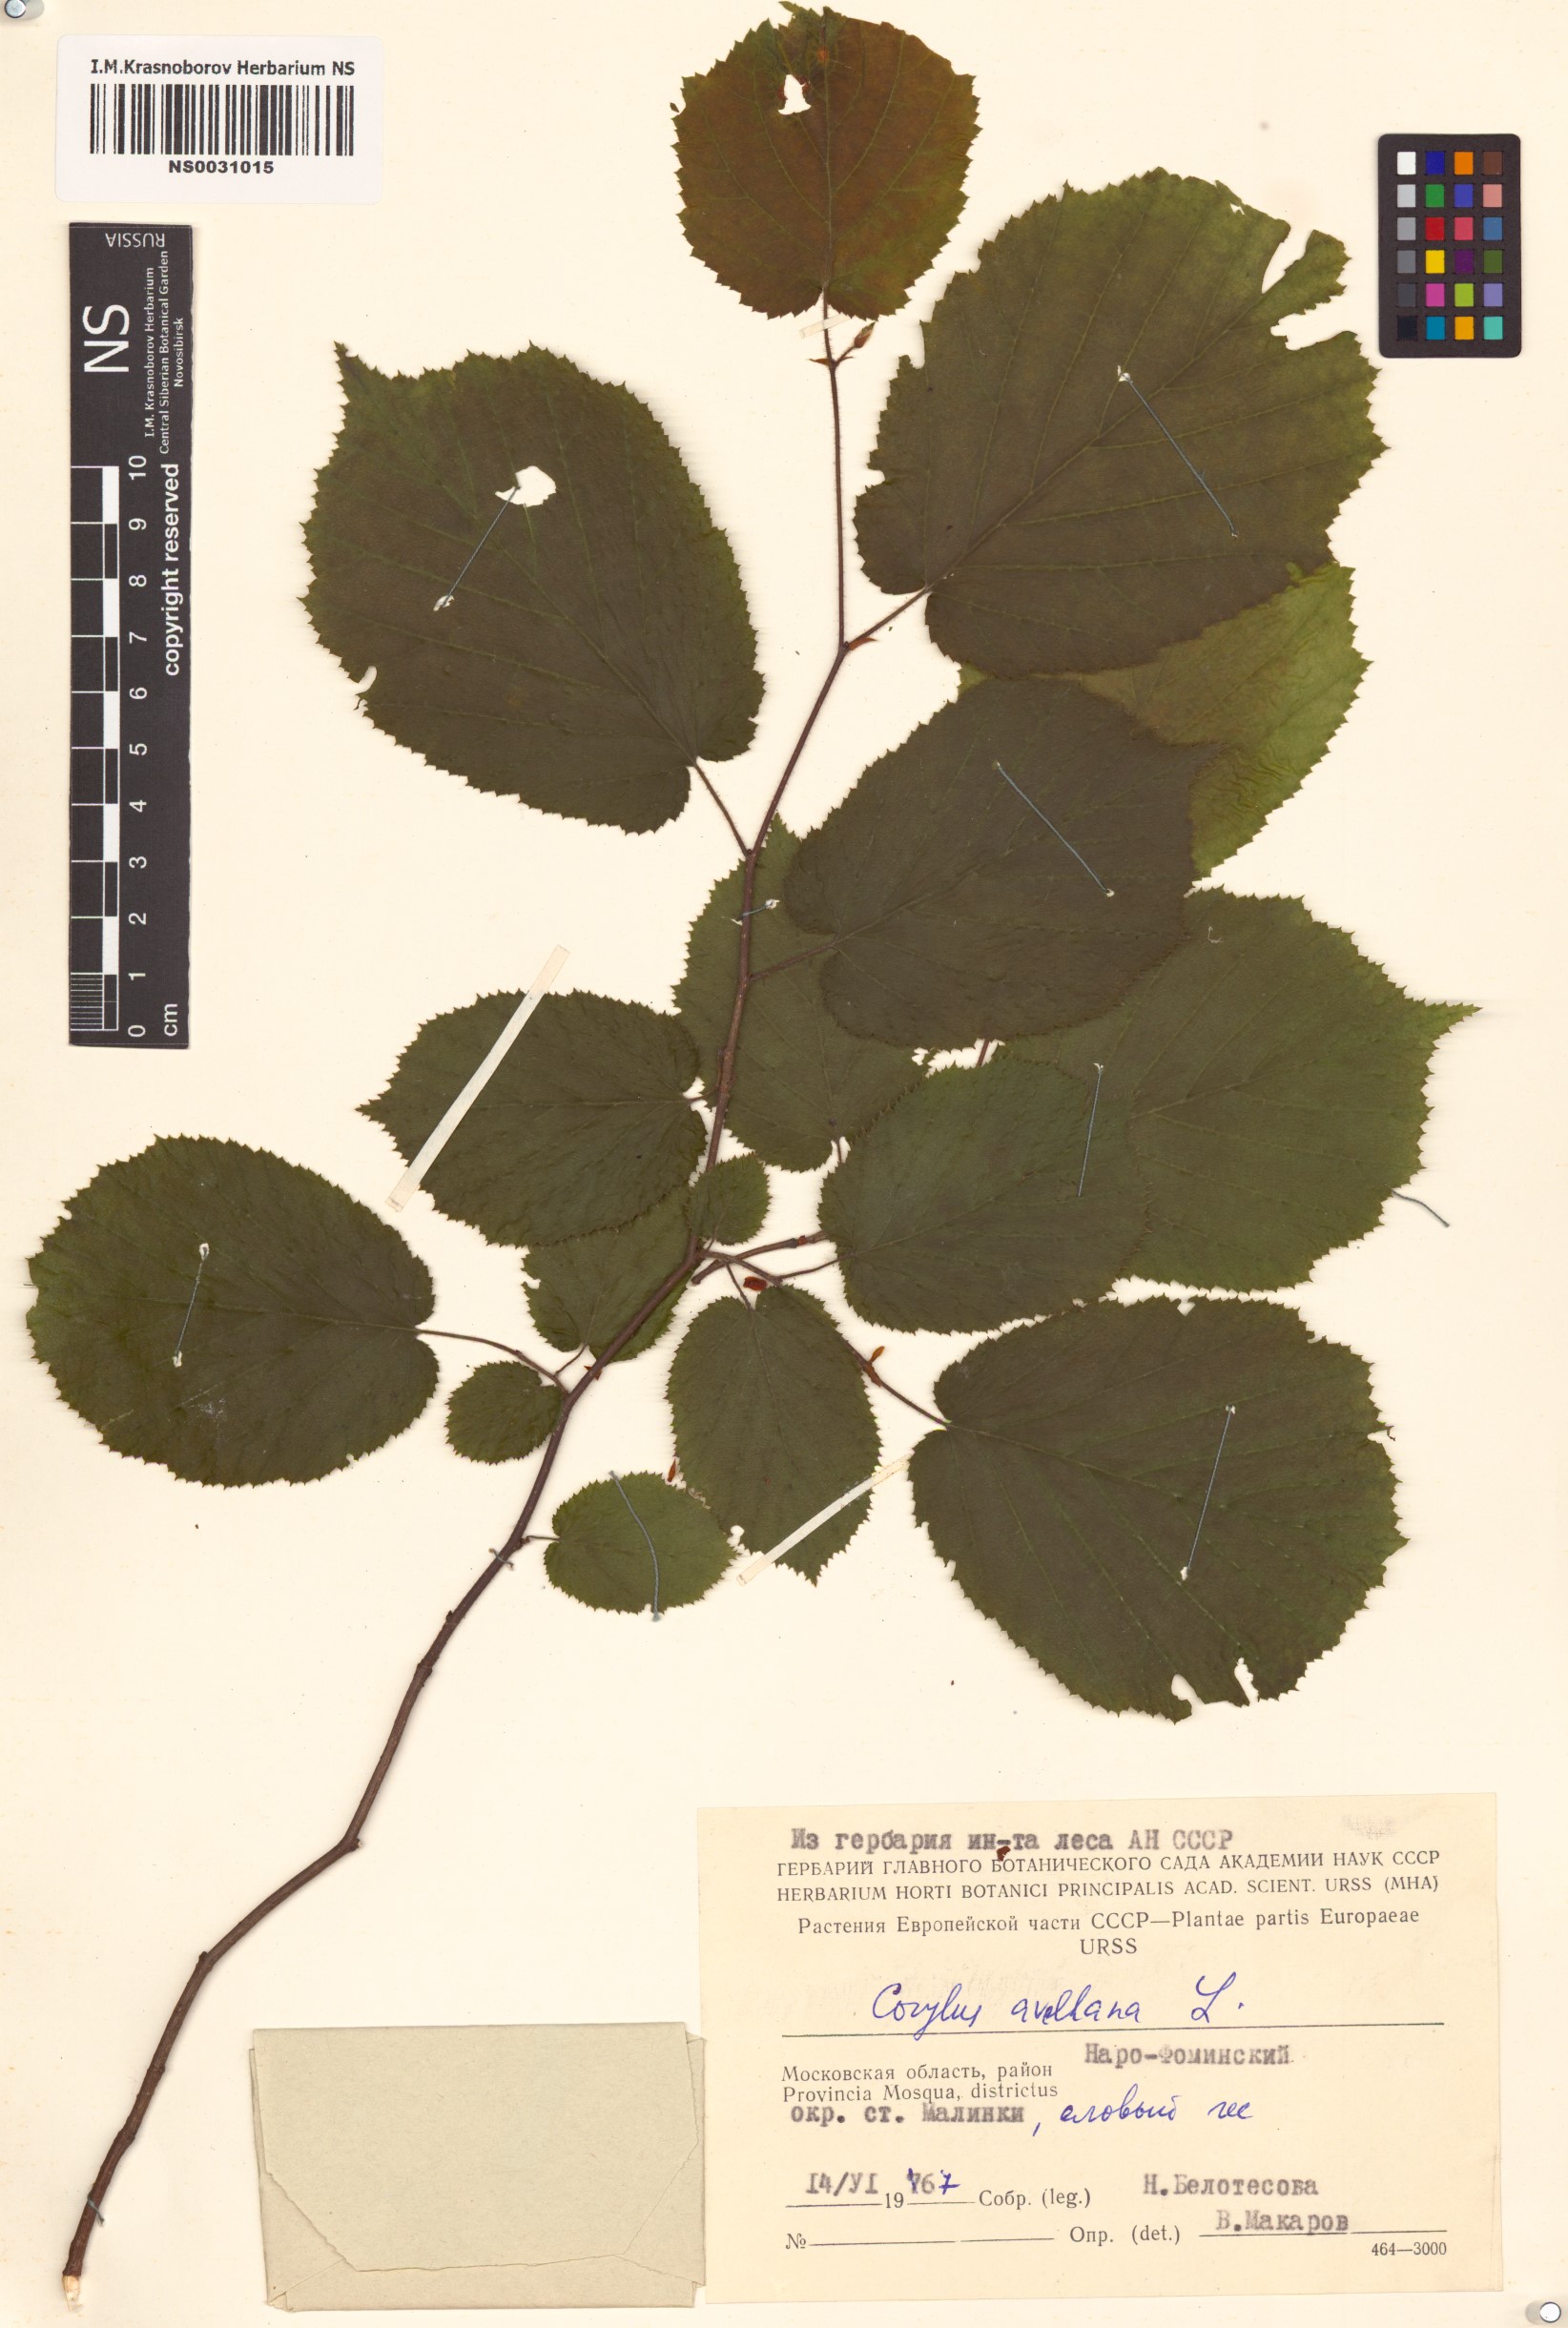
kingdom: Plantae
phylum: Tracheophyta
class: Magnoliopsida
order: Fagales
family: Betulaceae
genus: Corylus
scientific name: Corylus avellana
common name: European hazel
